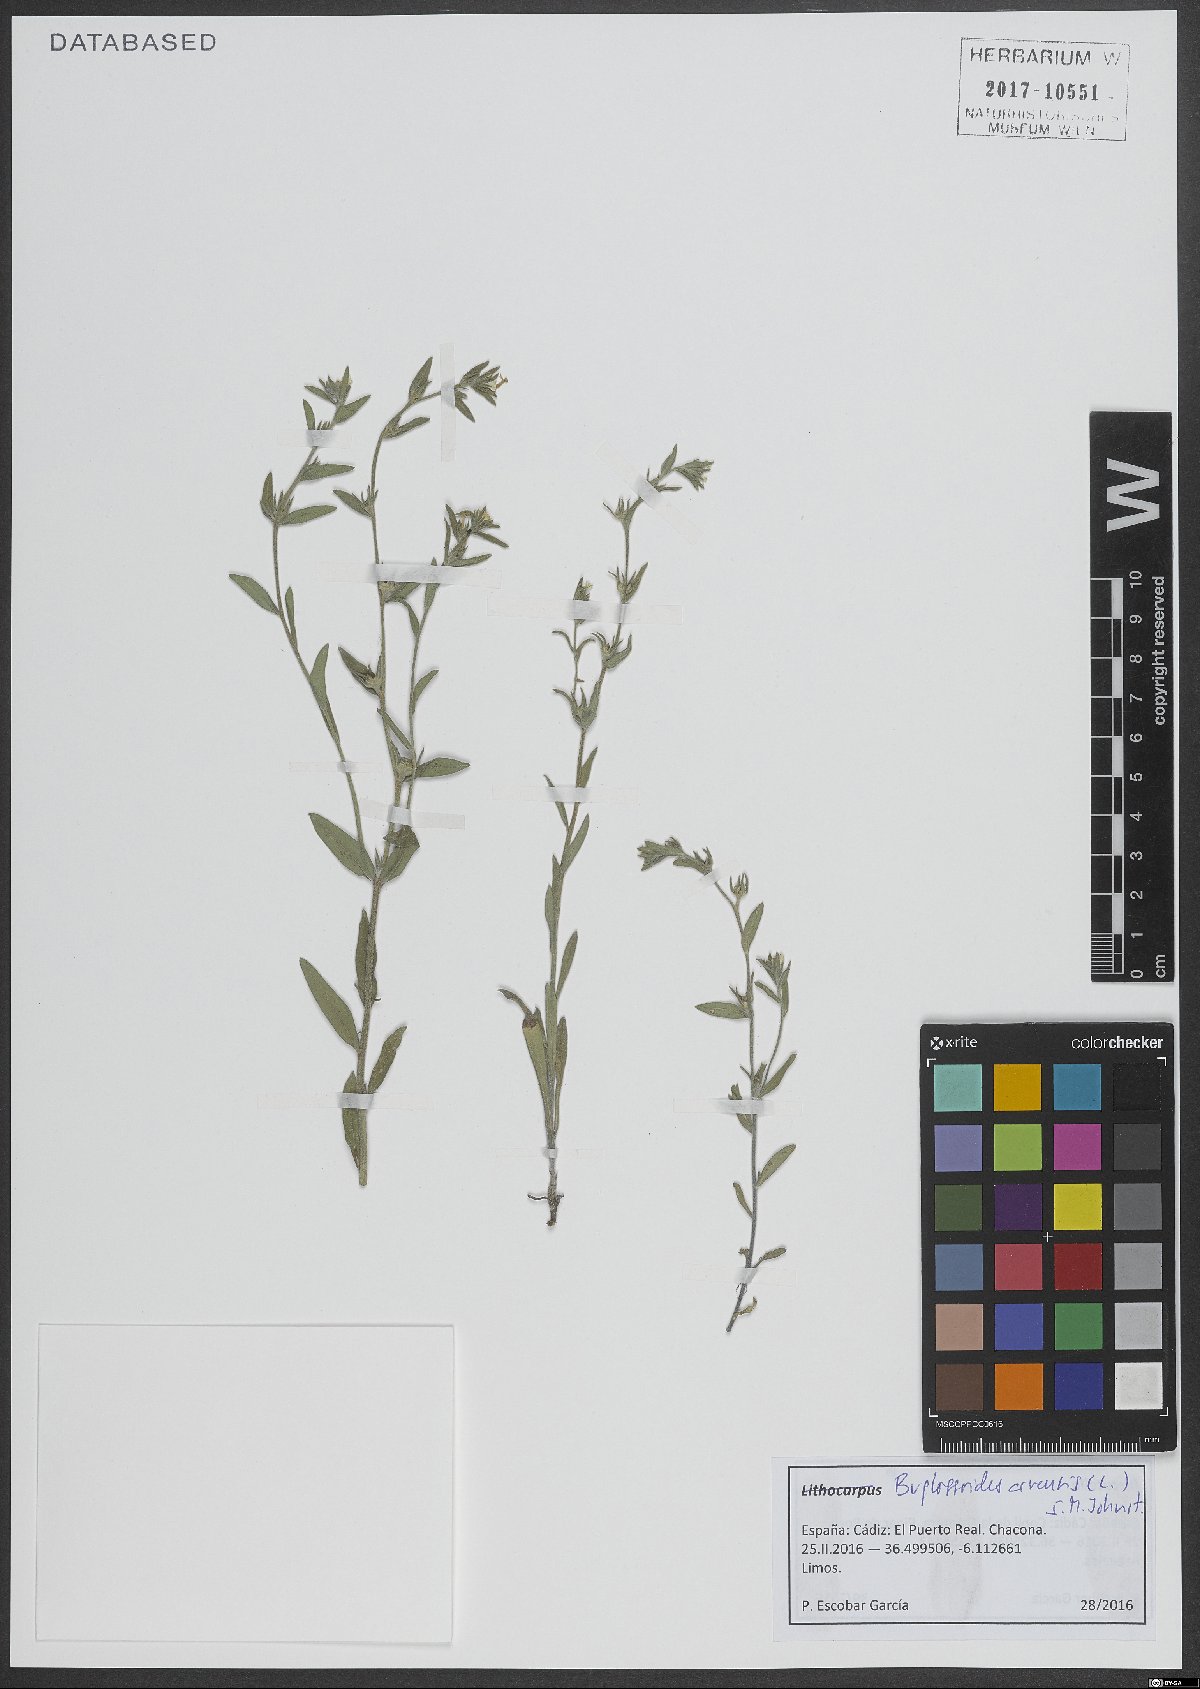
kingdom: Plantae
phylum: Tracheophyta
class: Magnoliopsida
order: Boraginales
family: Boraginaceae
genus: Buglossoides
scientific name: Buglossoides arvensis
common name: Corn gromwell
